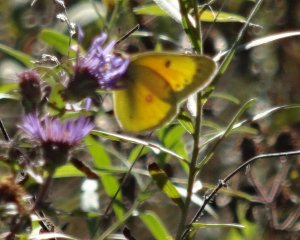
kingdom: Animalia
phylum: Arthropoda
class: Insecta
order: Lepidoptera
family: Pieridae
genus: Colias
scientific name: Colias eurytheme
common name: Orange Sulphur
